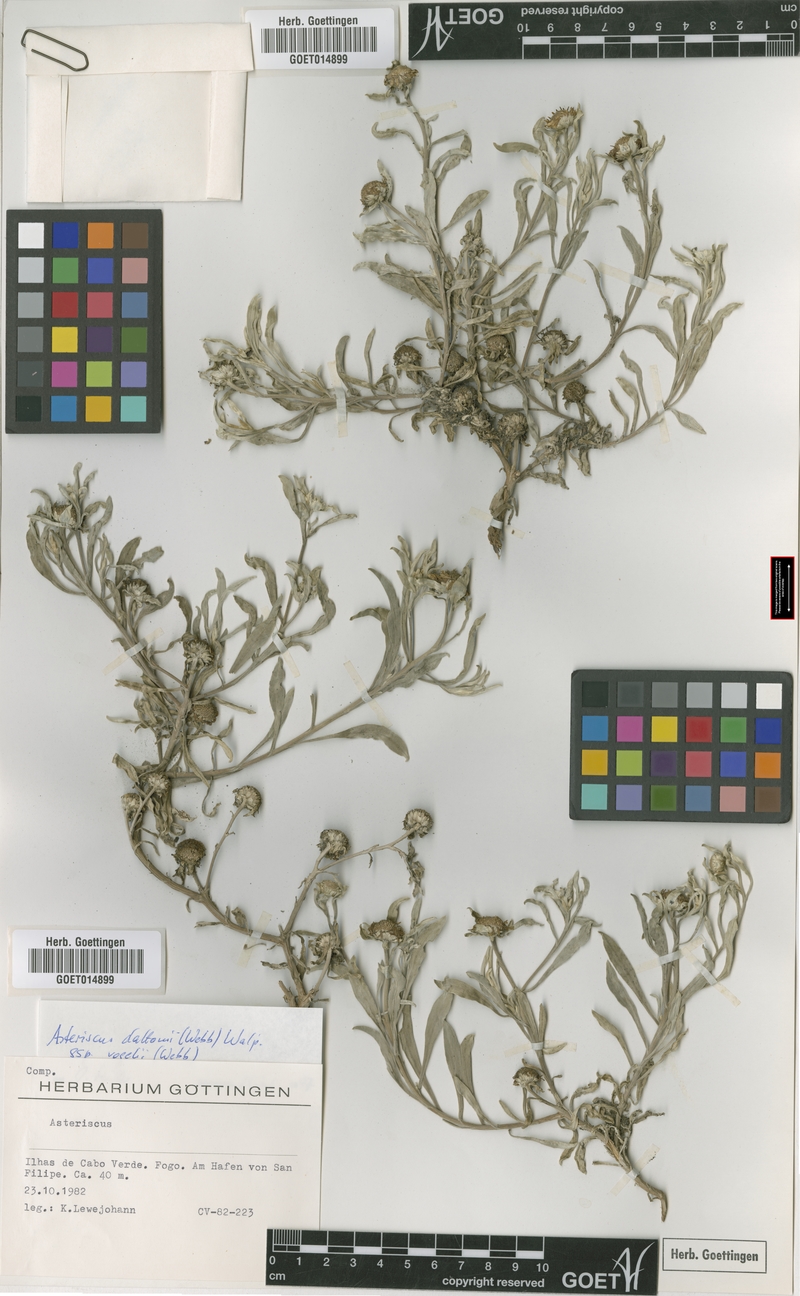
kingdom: Plantae
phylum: Tracheophyta
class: Magnoliopsida
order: Asterales
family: Asteraceae
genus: Asteriscus
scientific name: Asteriscus daltonii
